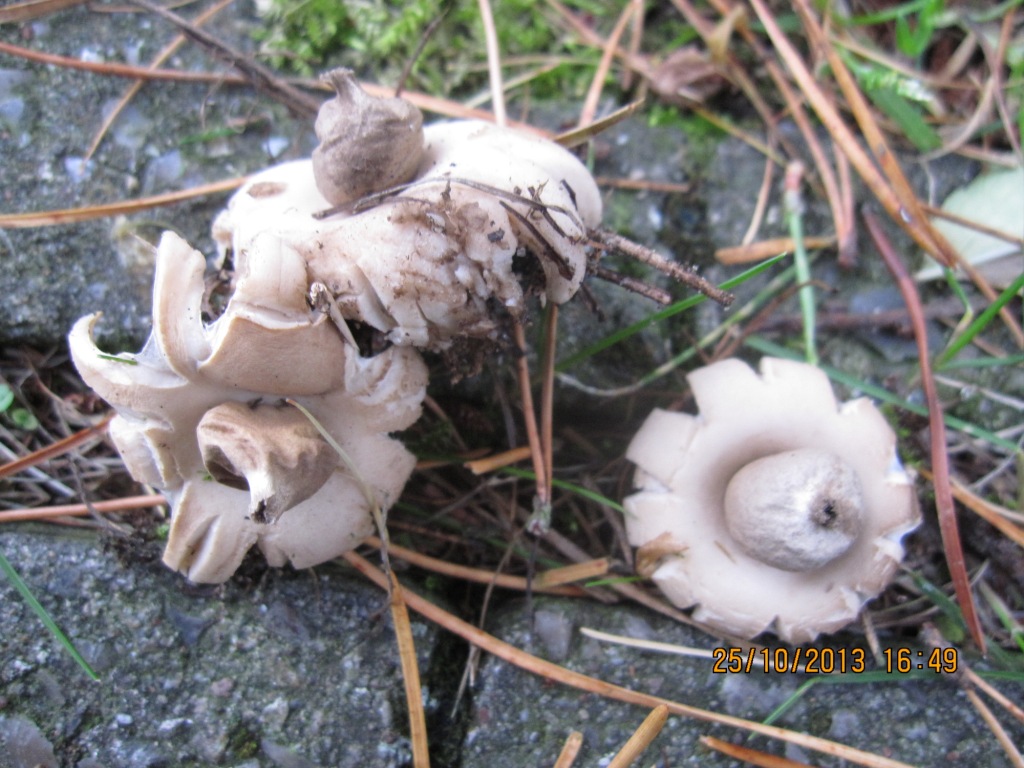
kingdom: Fungi
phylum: Basidiomycota
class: Agaricomycetes
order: Geastrales
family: Geastraceae
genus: Geastrum
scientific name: Geastrum fimbriatum
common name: frynset stjernebold
